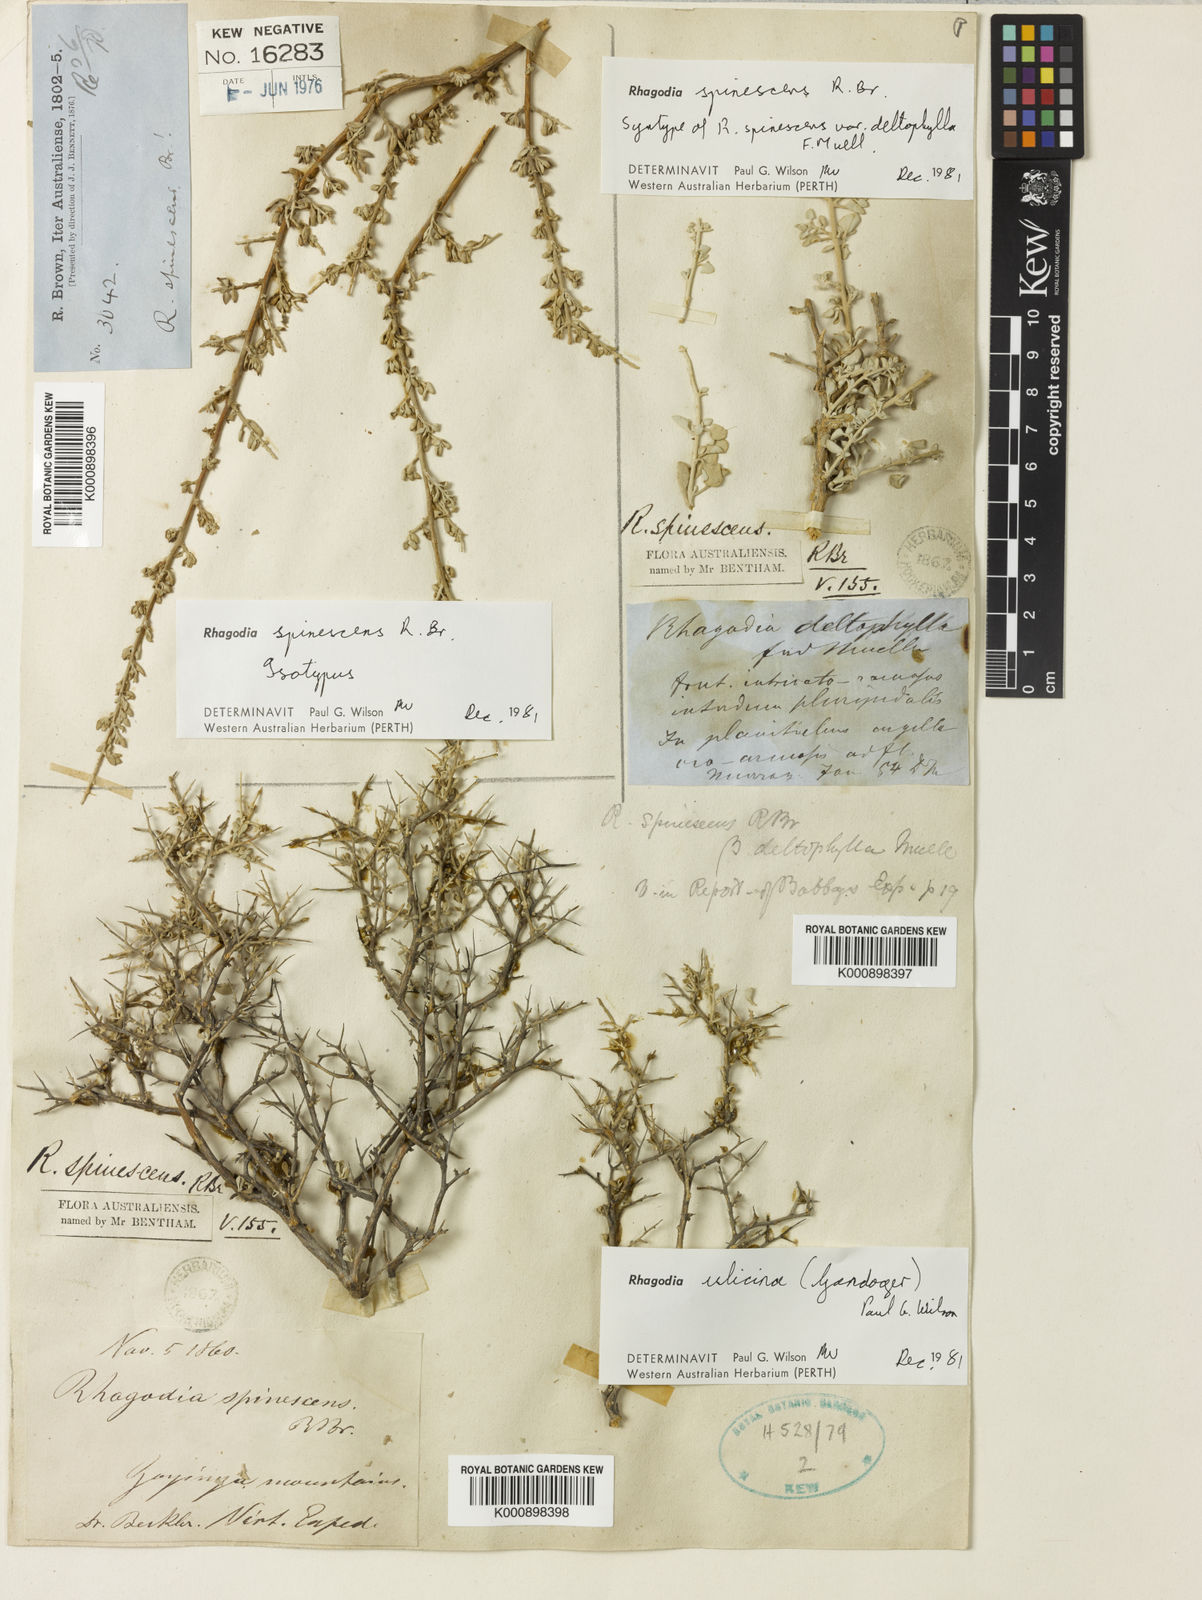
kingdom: Plantae
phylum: Tracheophyta
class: Magnoliopsida
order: Caryophyllales
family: Amaranthaceae
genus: Chenopodium
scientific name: Chenopodium spinescens
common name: Berry-saltbush
